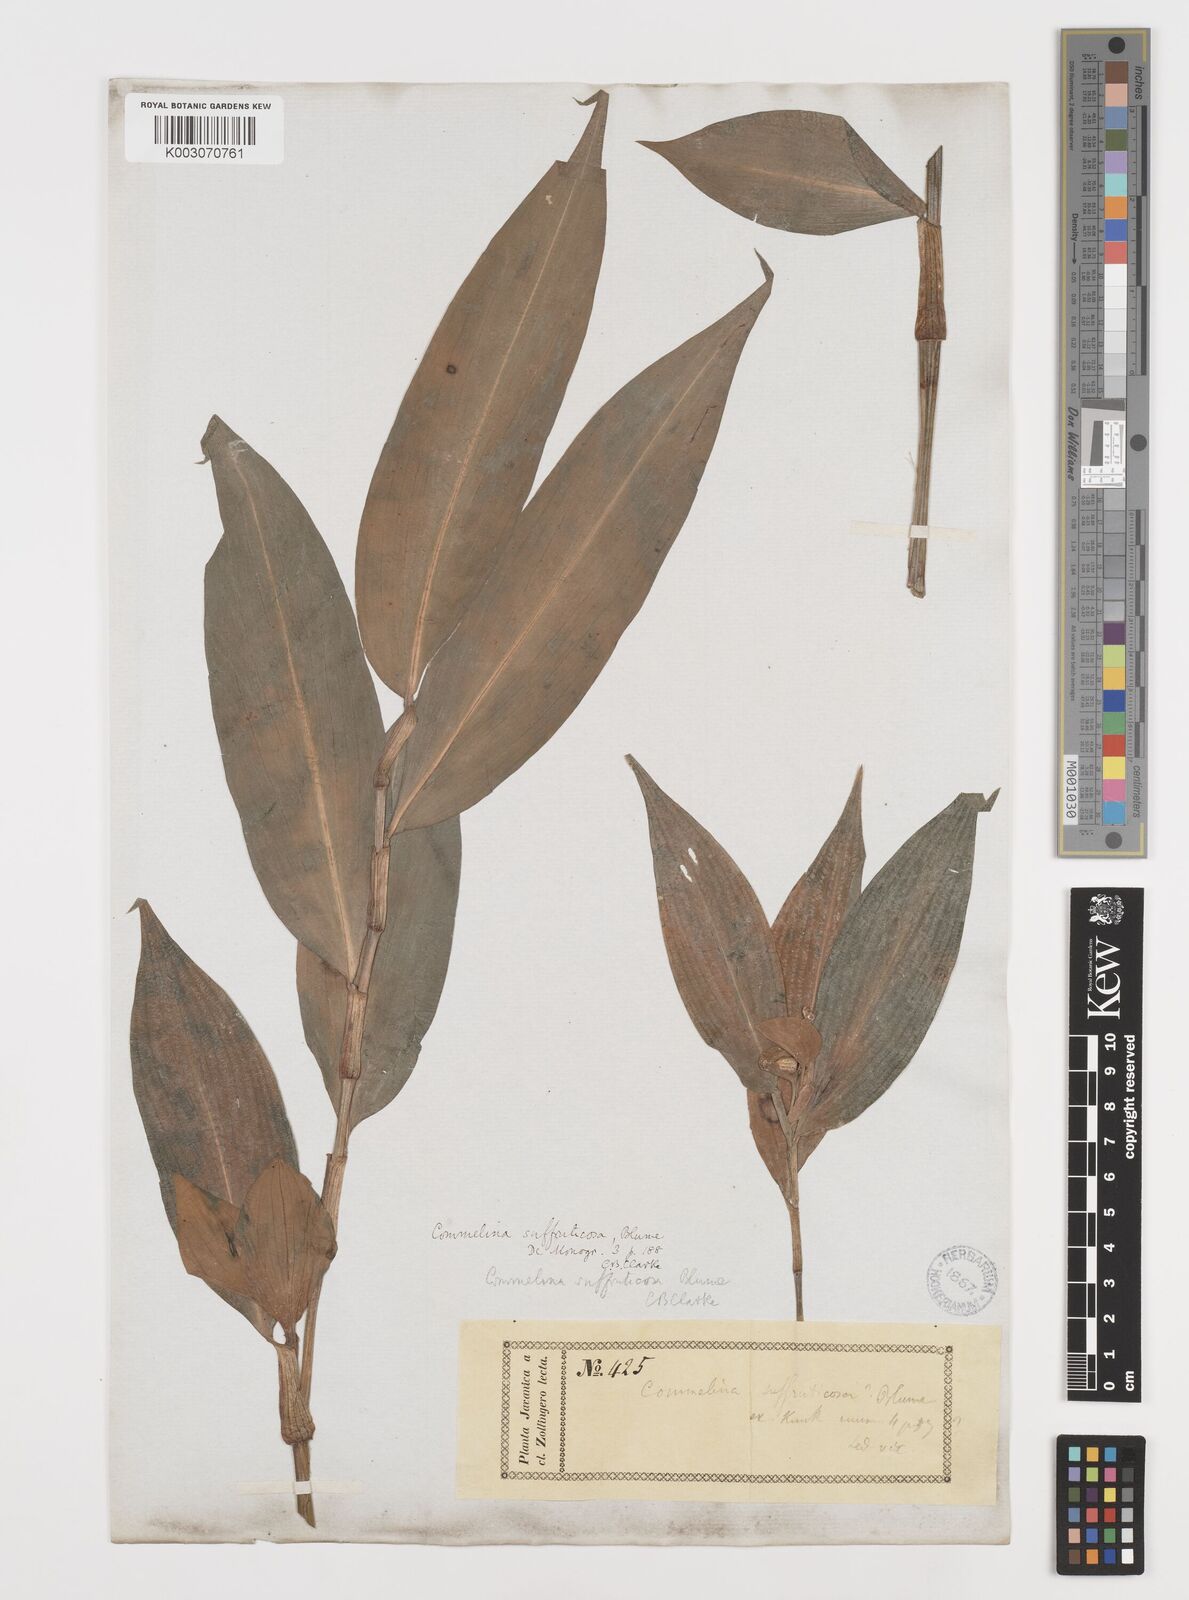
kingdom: Plantae
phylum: Tracheophyta
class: Liliopsida
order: Commelinales
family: Commelinaceae
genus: Commelina
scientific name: Commelina suffruticosa
